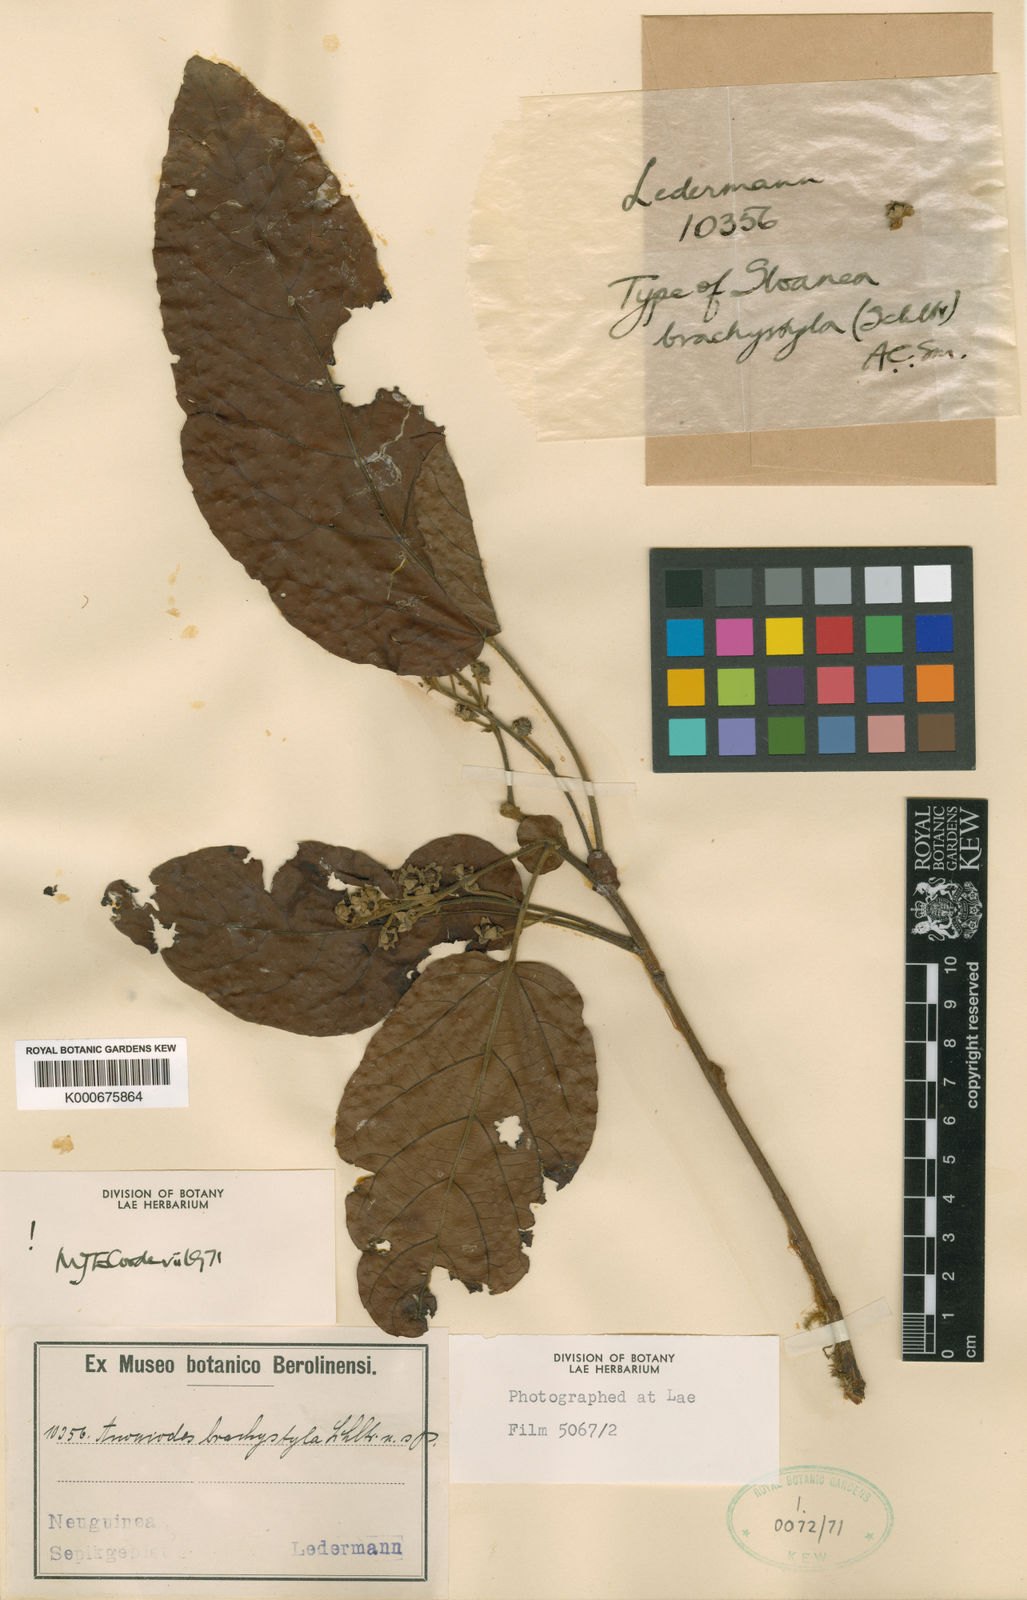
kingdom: Plantae
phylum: Tracheophyta
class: Magnoliopsida
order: Oxalidales
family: Elaeocarpaceae
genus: Sloanea
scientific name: Sloanea brachystyla
